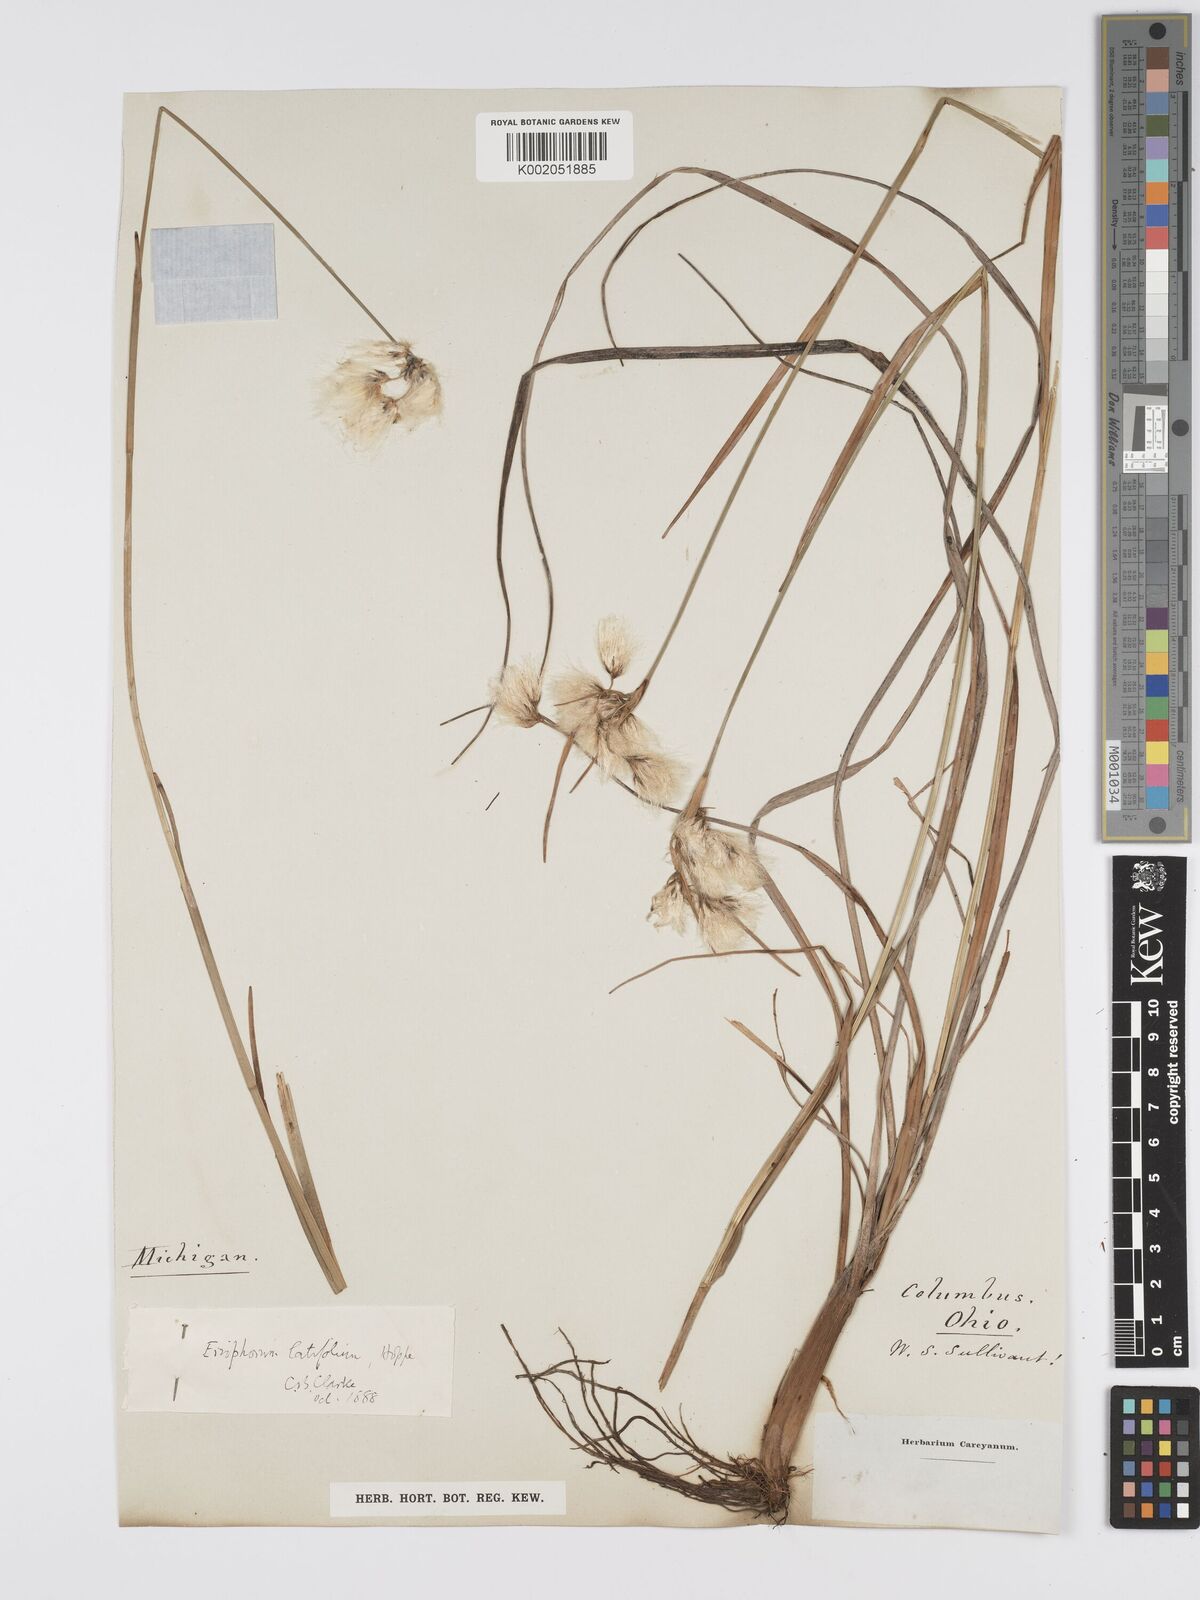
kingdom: Plantae
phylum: Tracheophyta
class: Liliopsida
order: Poales
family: Cyperaceae
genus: Eriophorum
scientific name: Eriophorum latifolium
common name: Broad-leaved cottongrass
